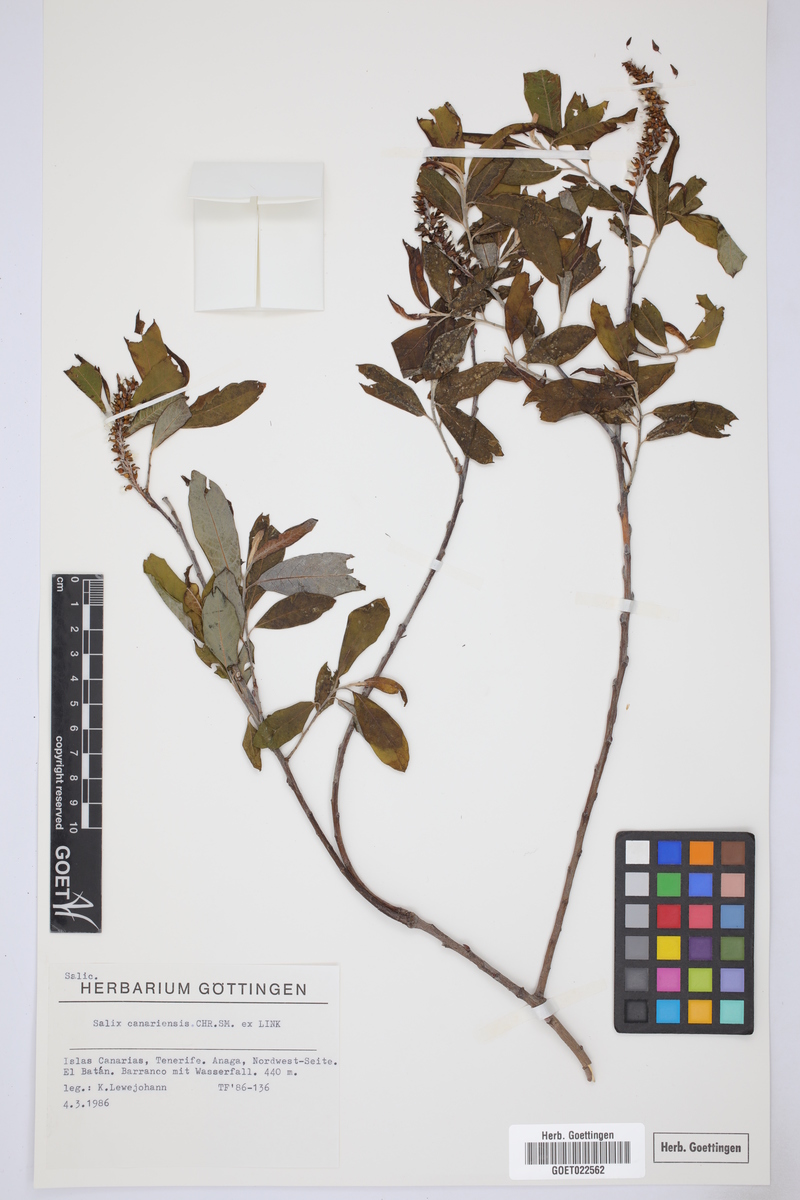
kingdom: Plantae
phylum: Tracheophyta
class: Magnoliopsida
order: Malpighiales
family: Salicaceae
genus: Salix
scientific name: Salix canariensis
